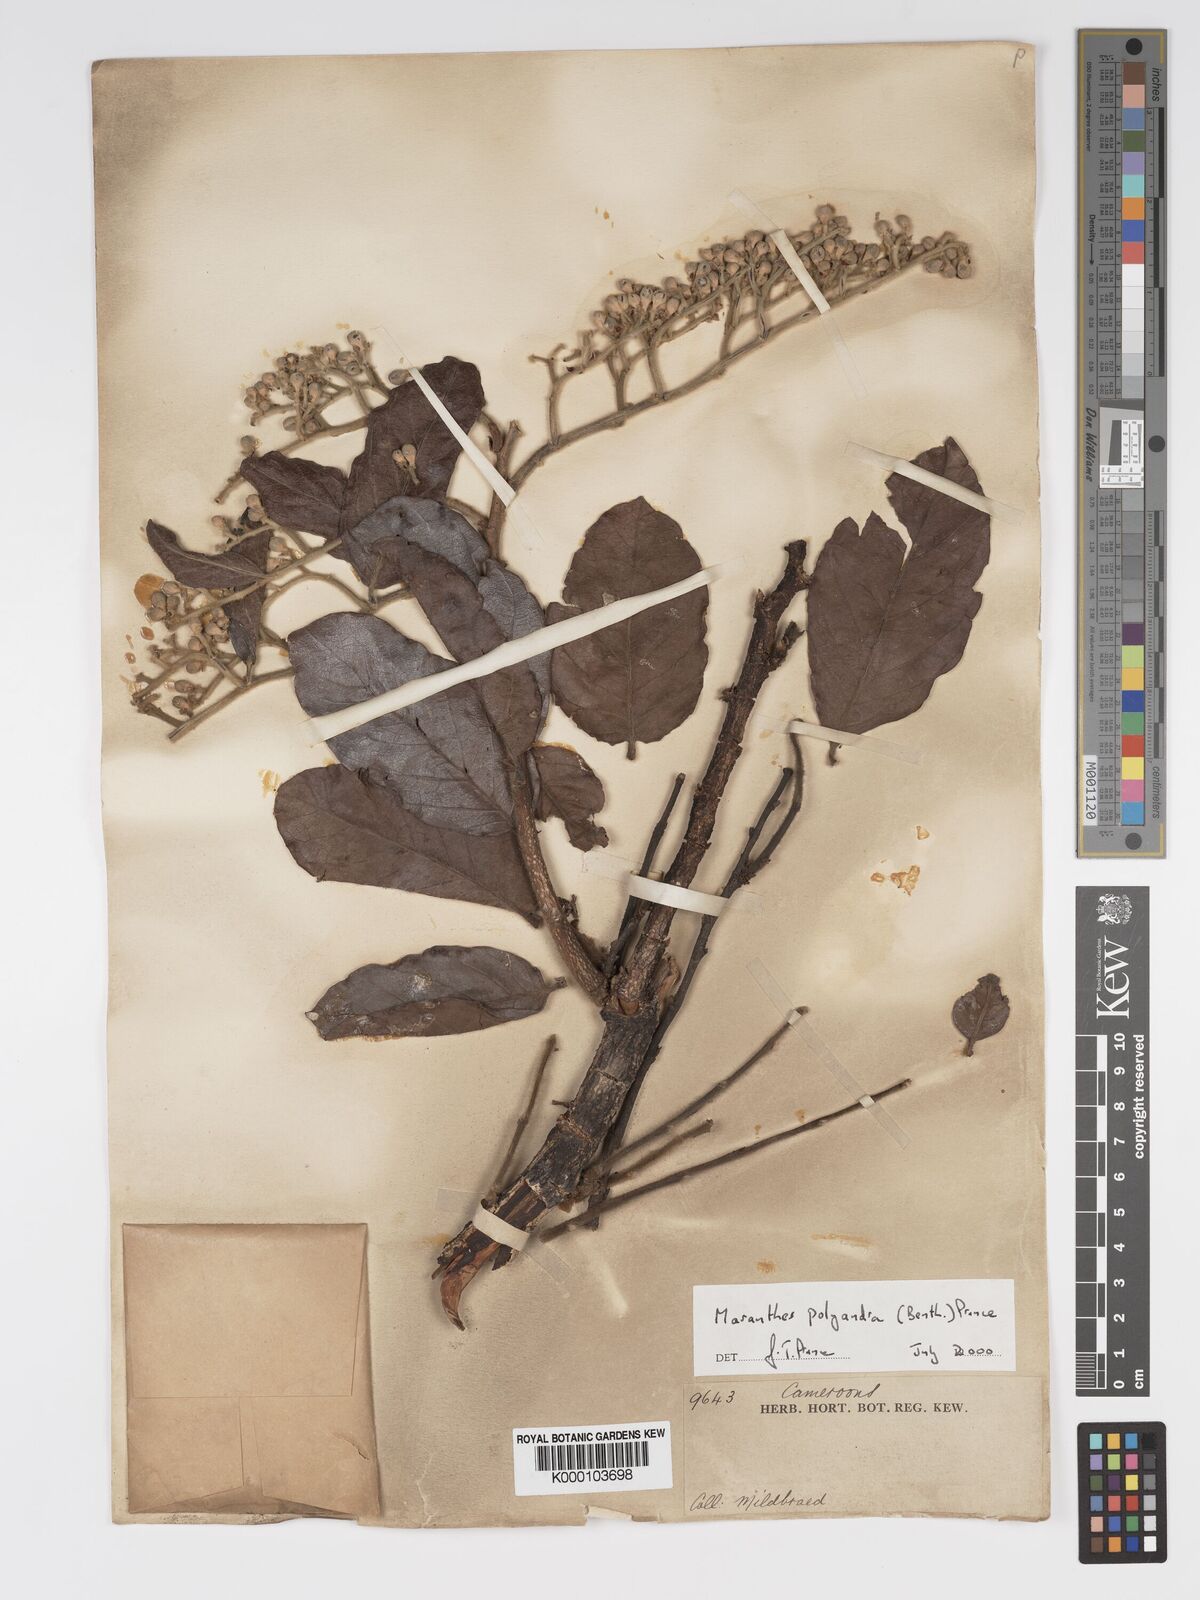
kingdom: Plantae
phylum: Tracheophyta
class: Magnoliopsida
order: Malpighiales
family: Chrysobalanaceae
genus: Maranthes
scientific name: Maranthes polyandra
